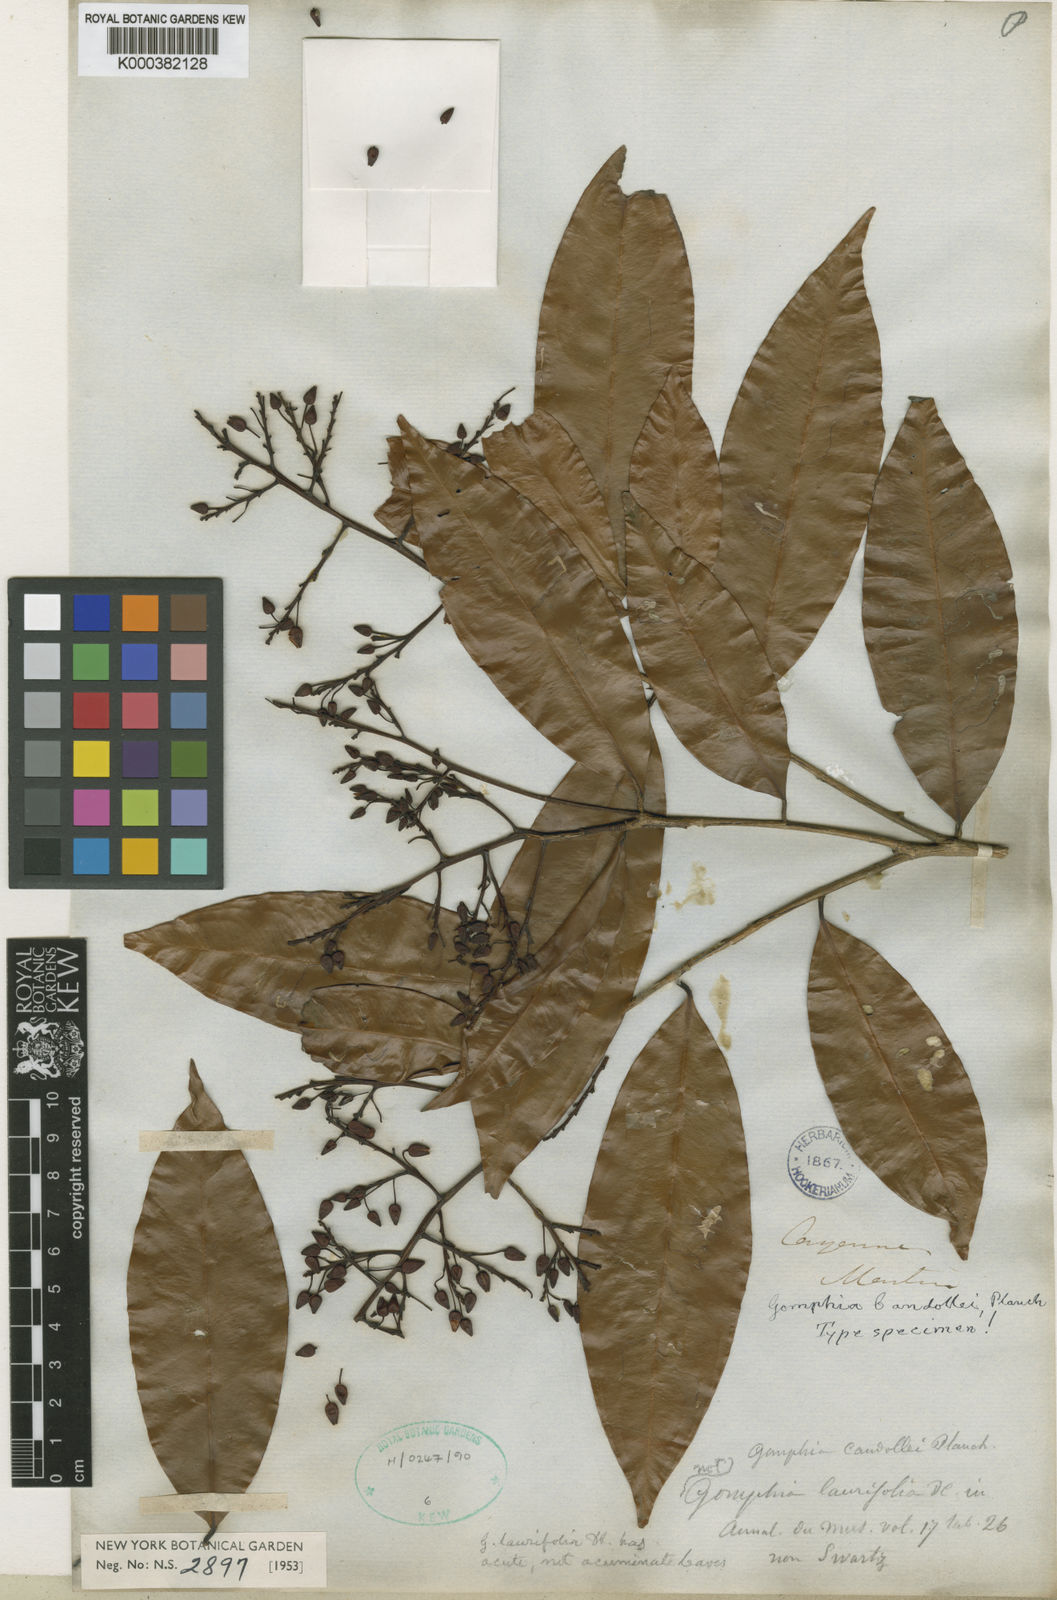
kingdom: Plantae
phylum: Tracheophyta
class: Magnoliopsida
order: Malpighiales
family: Ochnaceae
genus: Ouratea
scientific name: Ouratea
